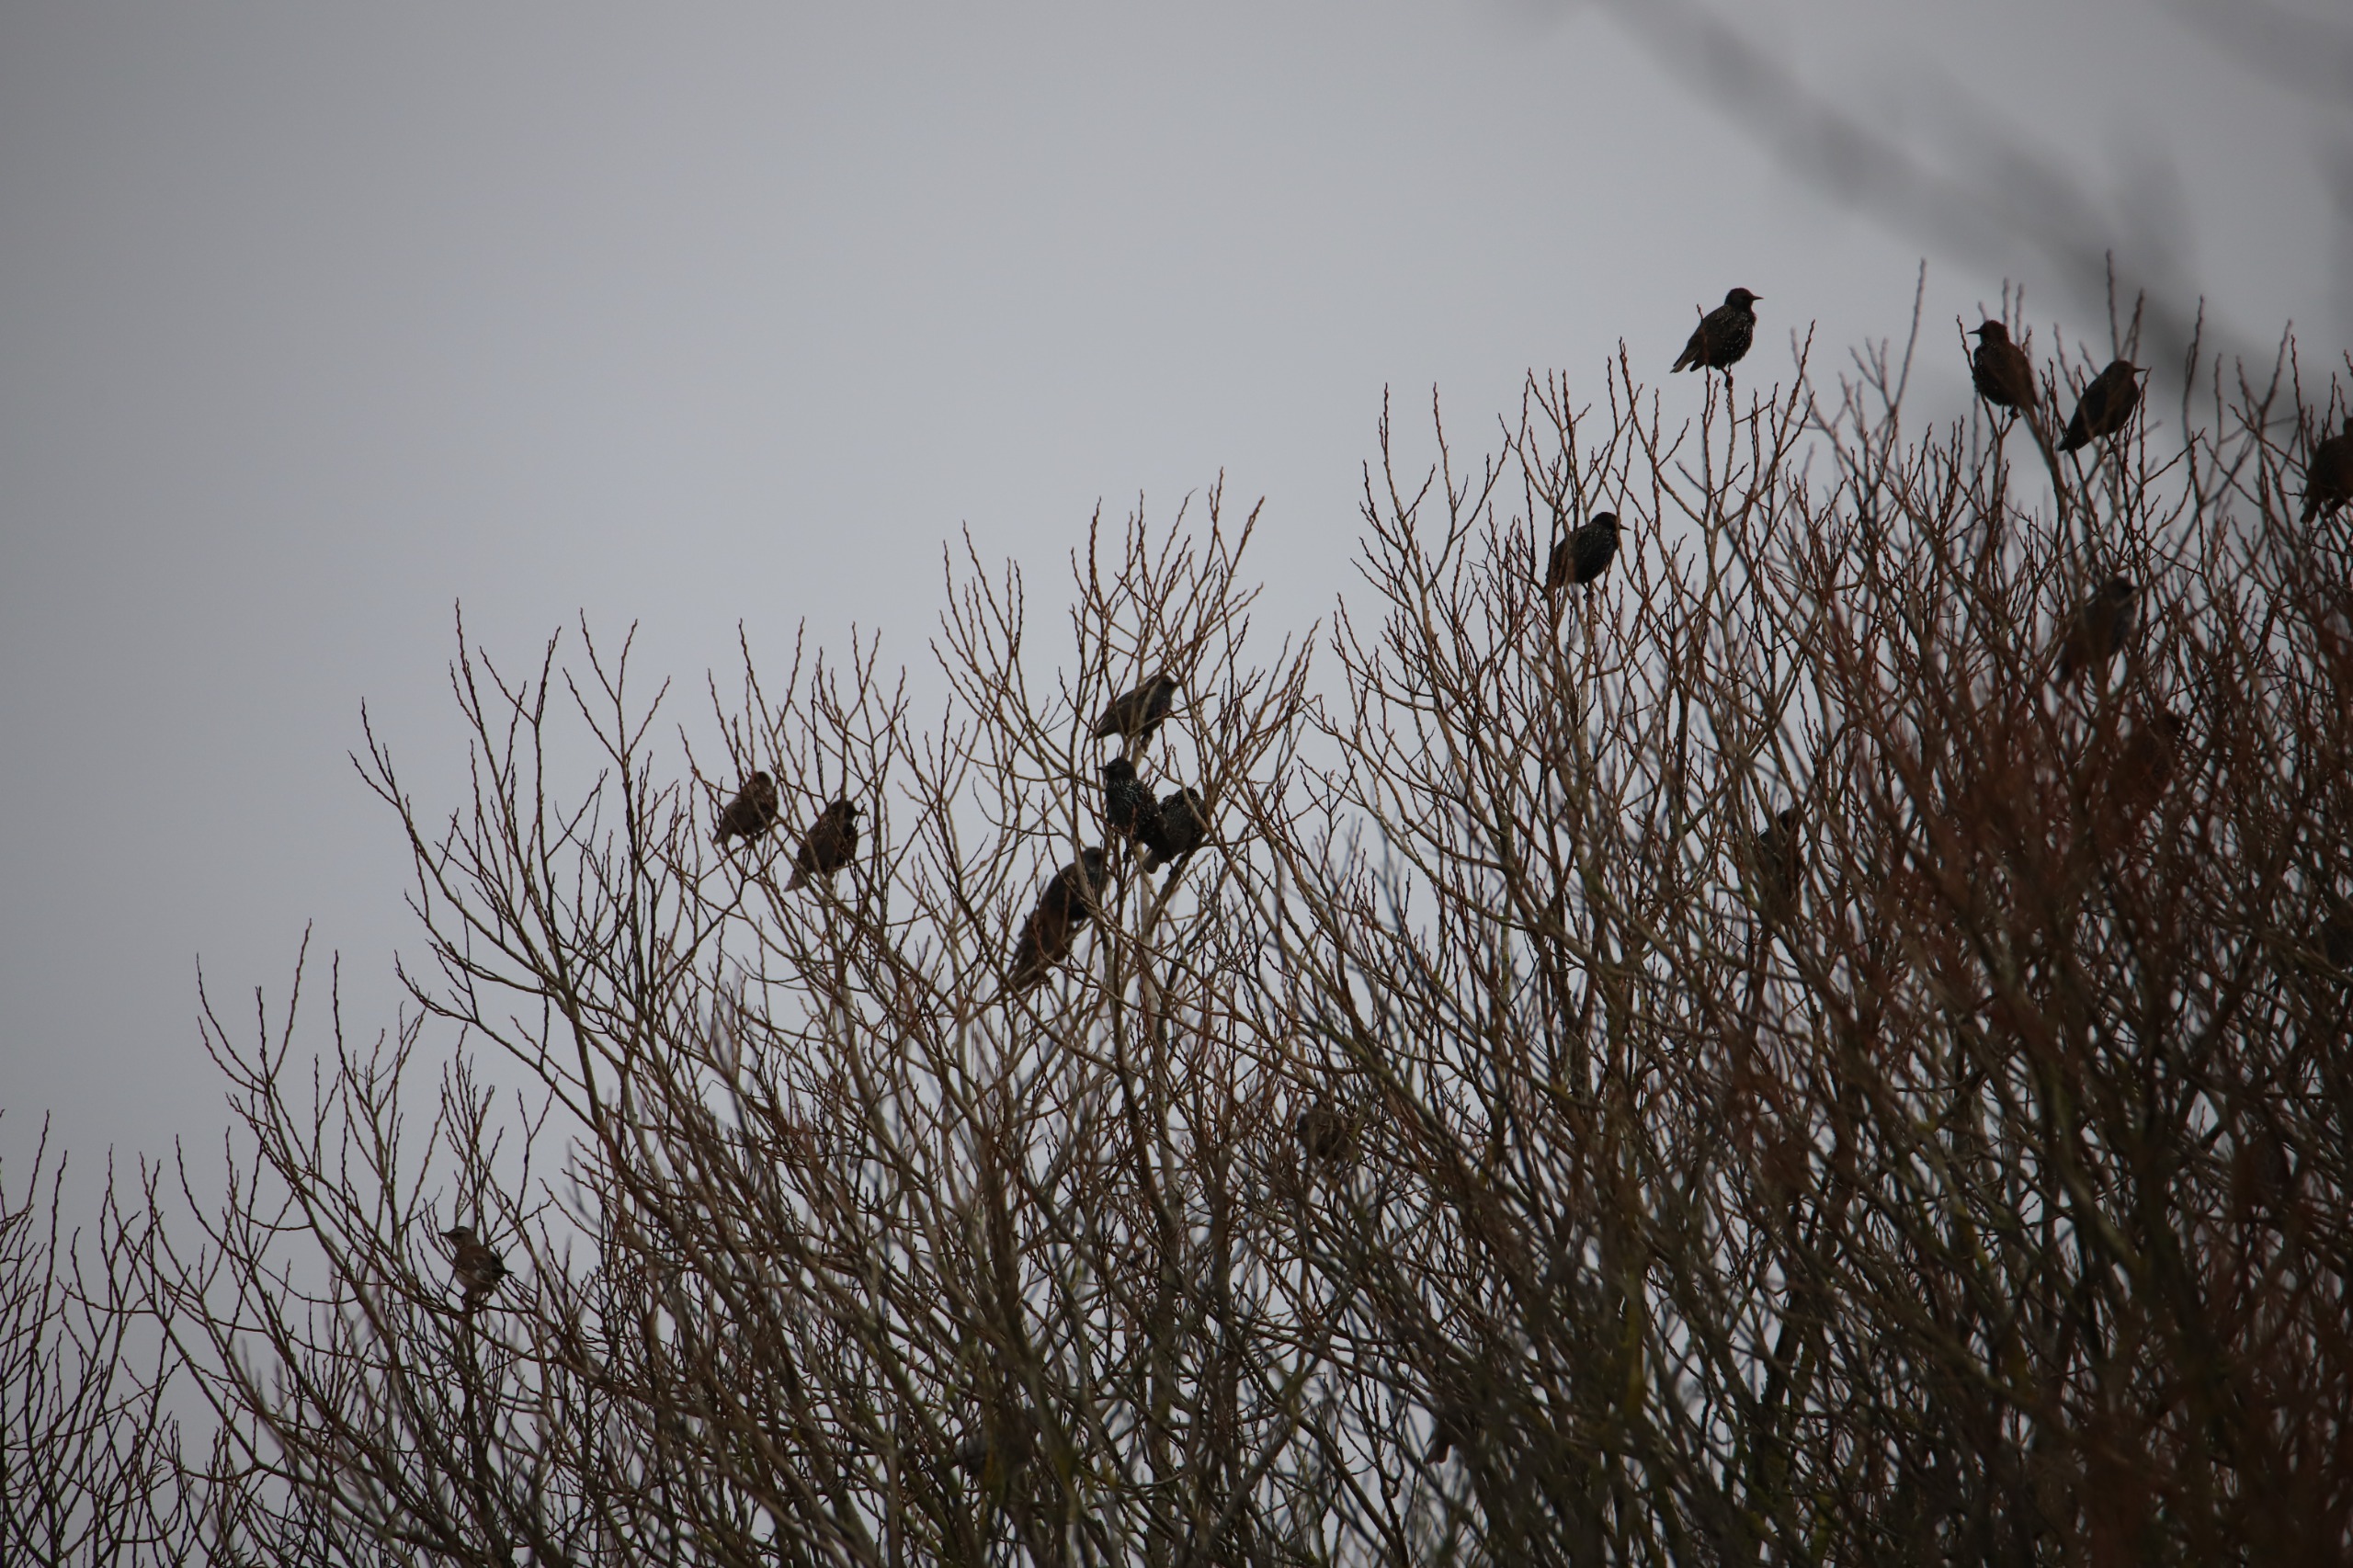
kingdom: Animalia
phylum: Chordata
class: Aves
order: Passeriformes
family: Sturnidae
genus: Sturnus
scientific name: Sturnus vulgaris
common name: Stær
